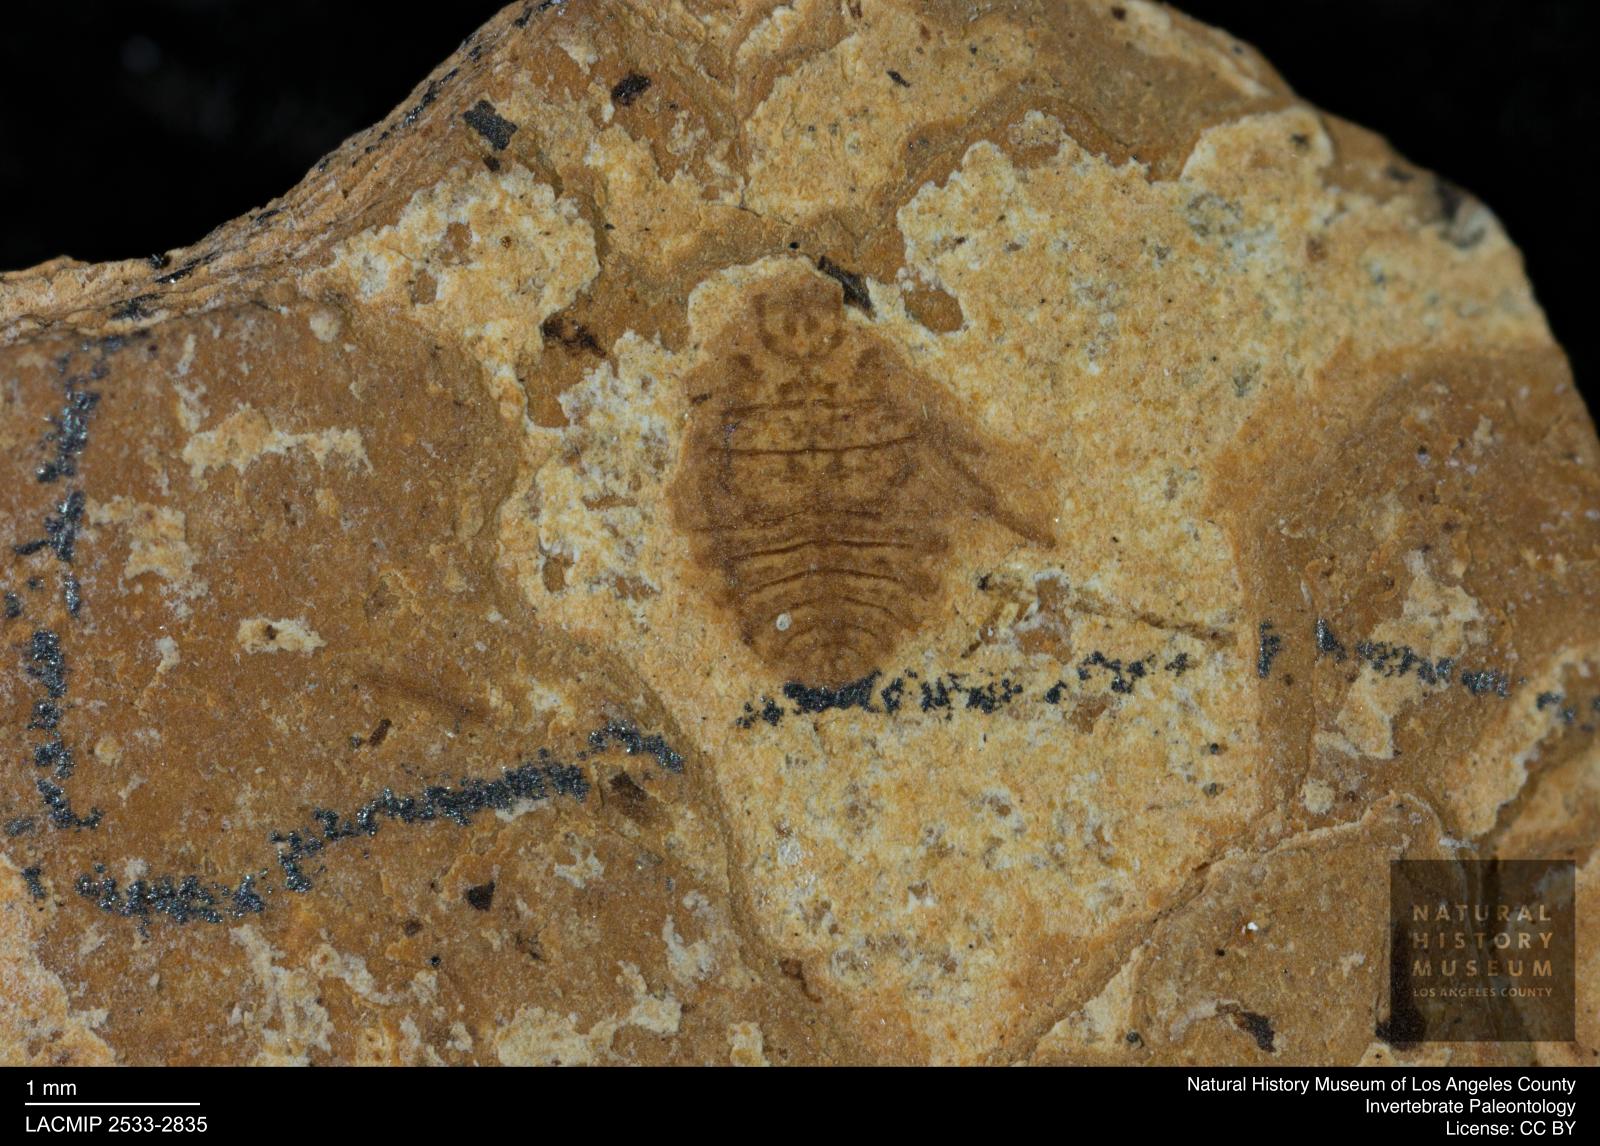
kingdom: Animalia
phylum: Arthropoda
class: Insecta
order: Hemiptera
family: Naucoridae
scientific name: Naucoridae
